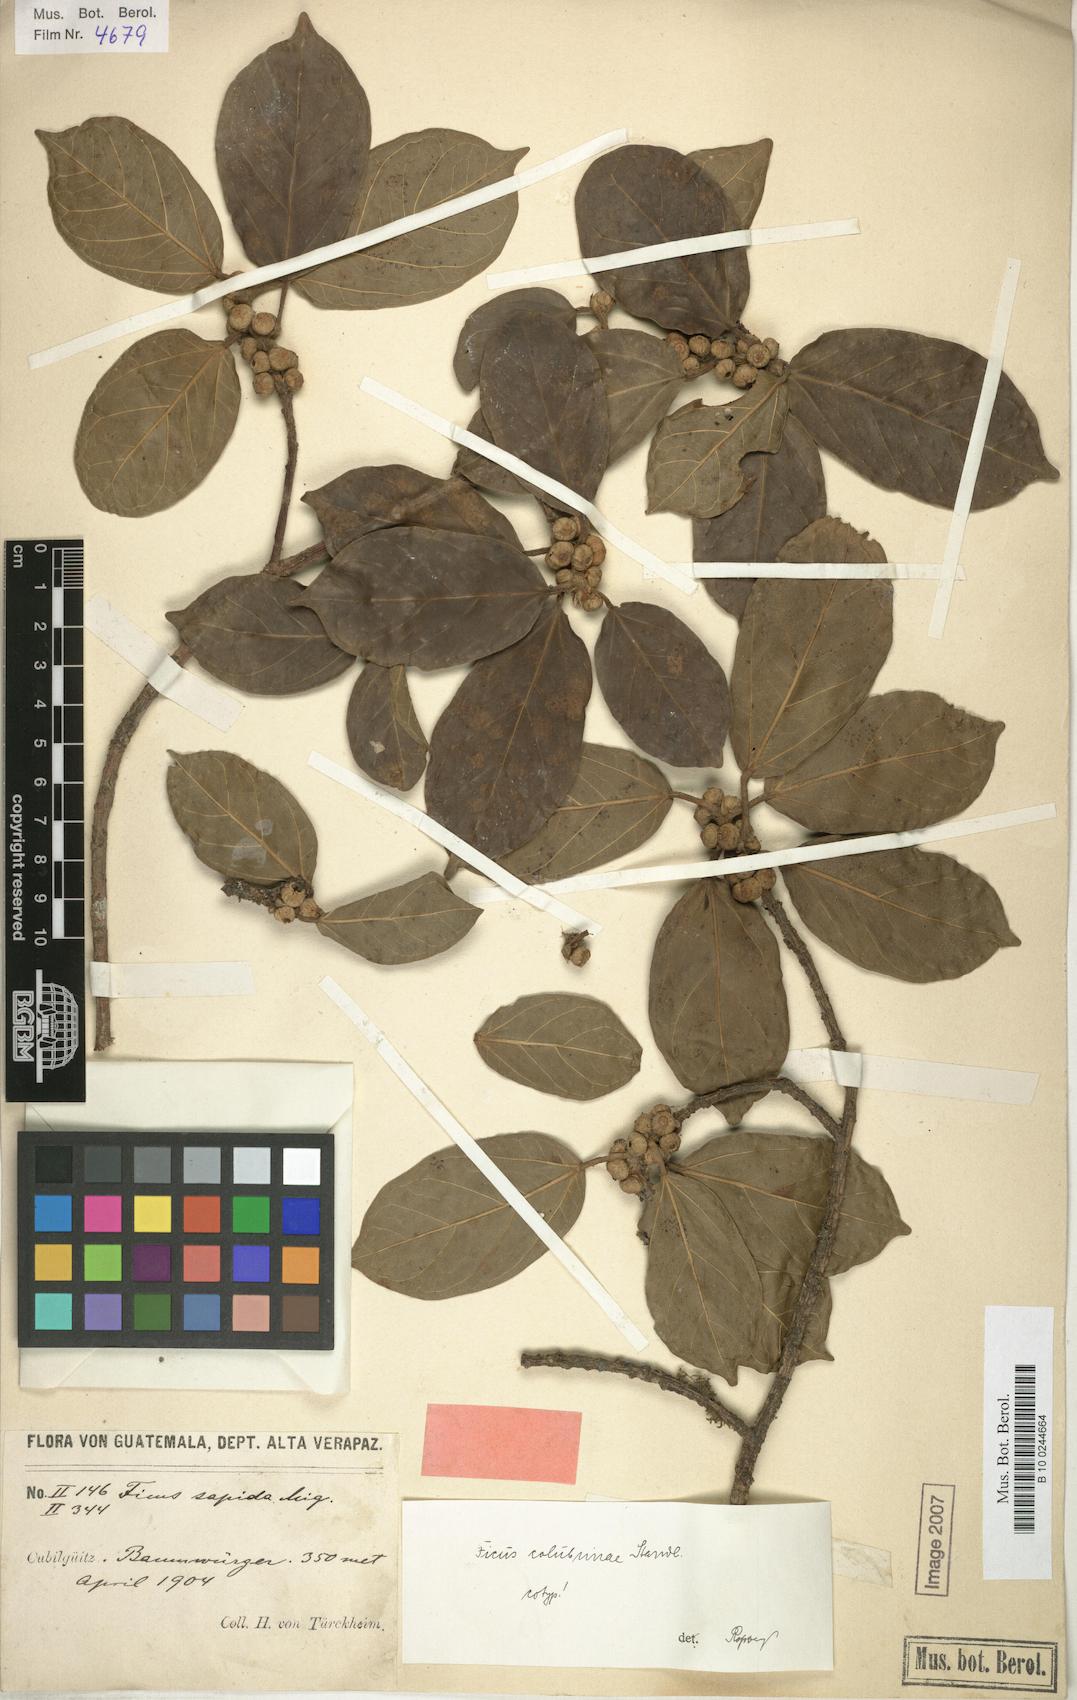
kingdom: Plantae
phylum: Tracheophyta
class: Magnoliopsida
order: Rosales
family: Moraceae
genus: Ficus
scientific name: Ficus colubrinae
